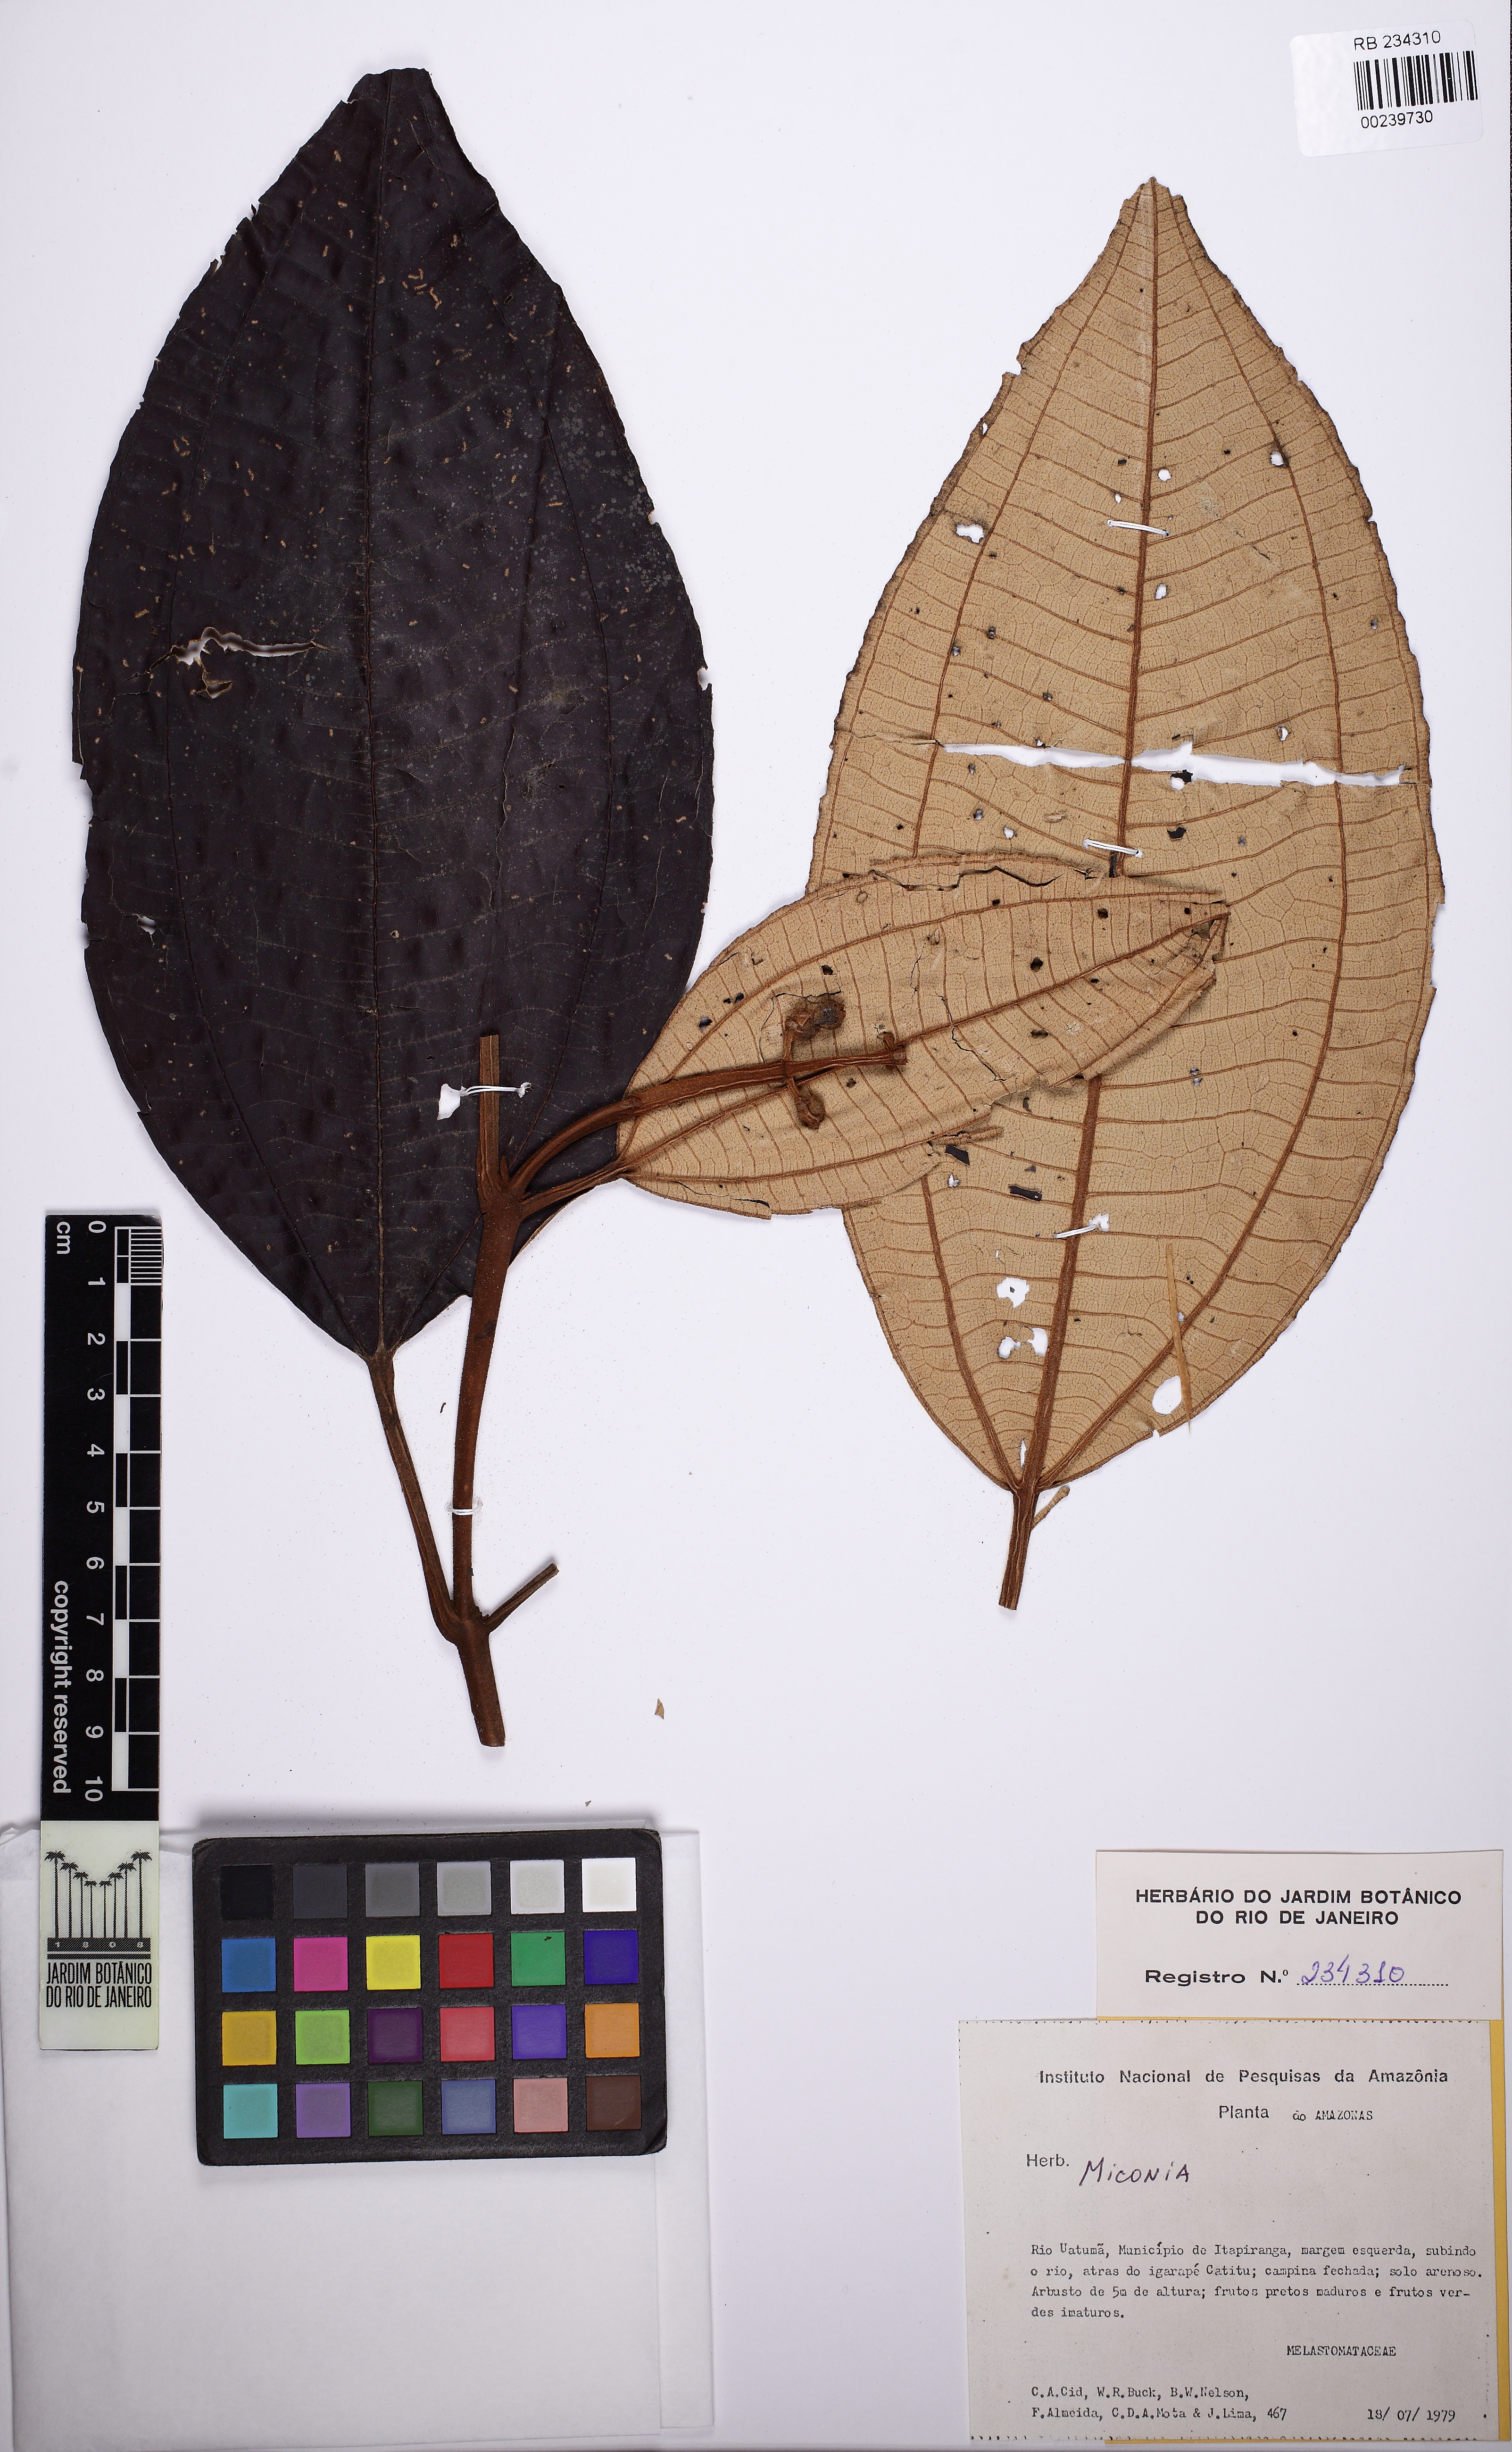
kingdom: Plantae
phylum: Tracheophyta
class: Magnoliopsida
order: Myrtales
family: Melastomataceae
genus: Miconia
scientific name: Miconia subsimplex
